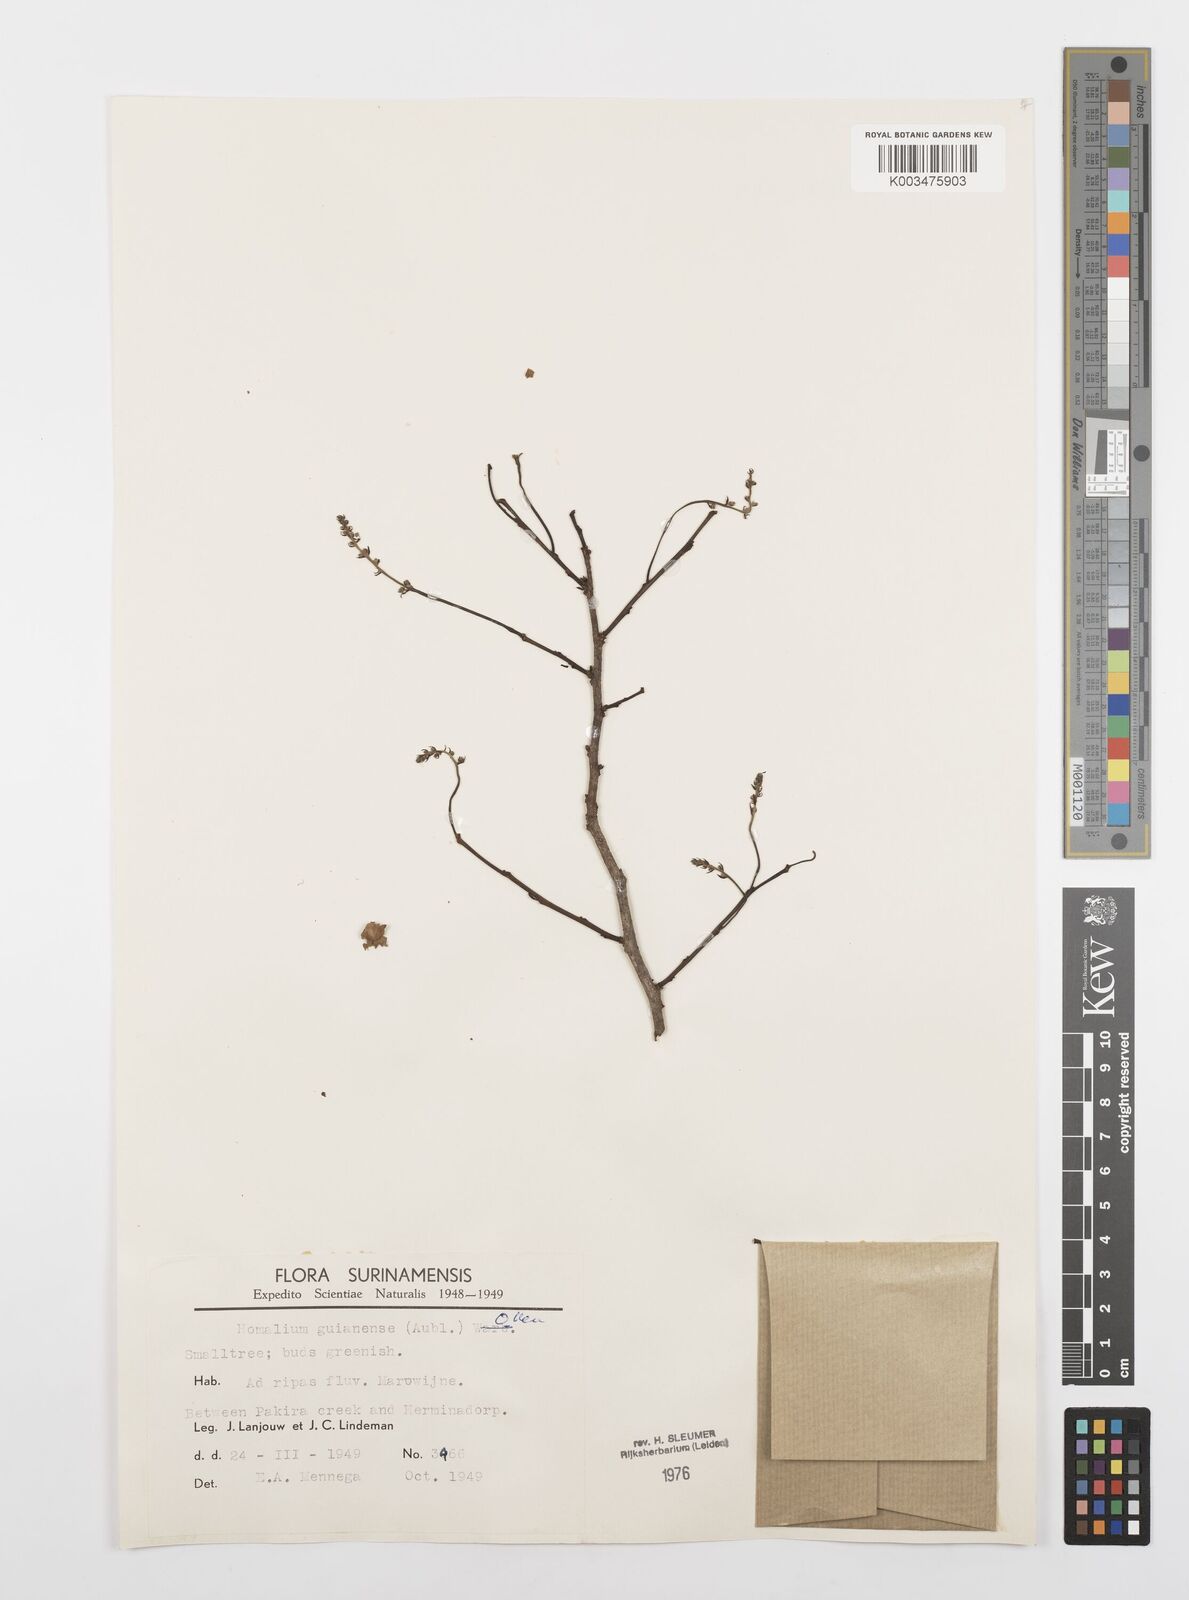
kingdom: Plantae
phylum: Tracheophyta
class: Magnoliopsida
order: Malpighiales
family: Salicaceae
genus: Homalium
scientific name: Homalium guianense
